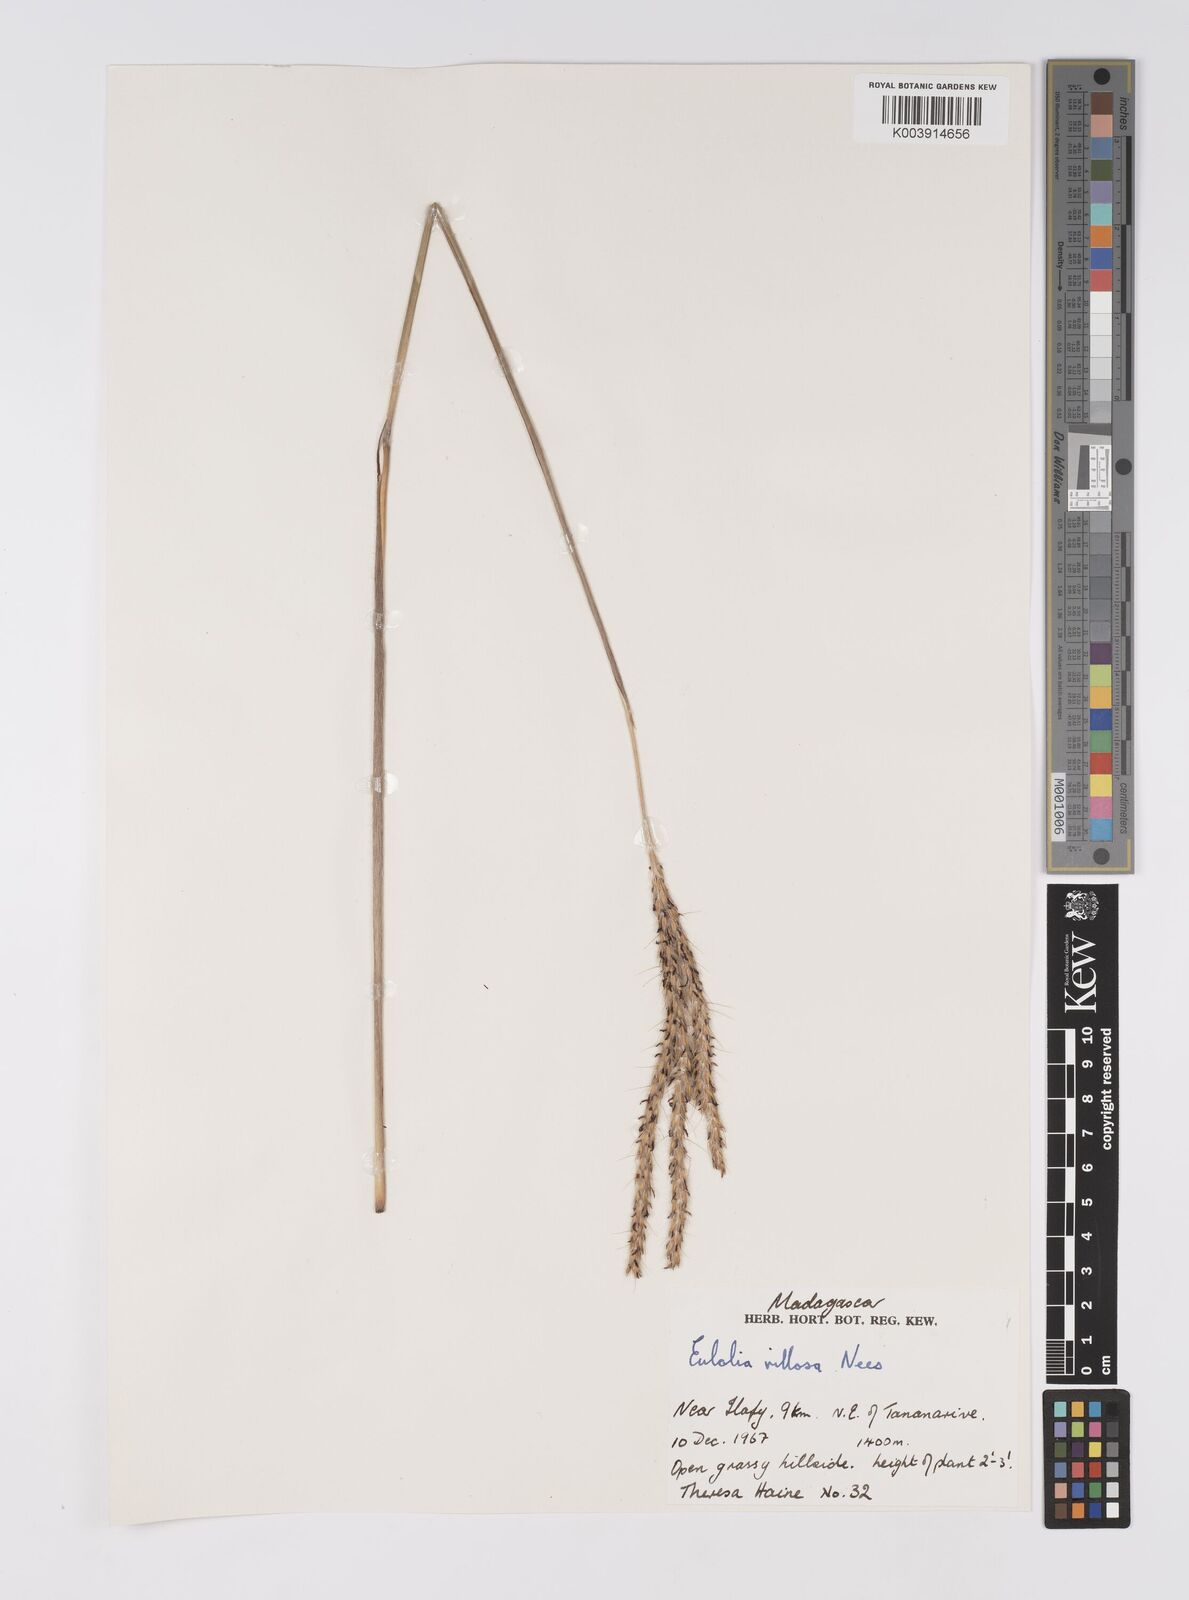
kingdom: Plantae
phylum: Tracheophyta
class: Liliopsida
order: Poales
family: Poaceae
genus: Eulalia
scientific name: Eulalia villosa
